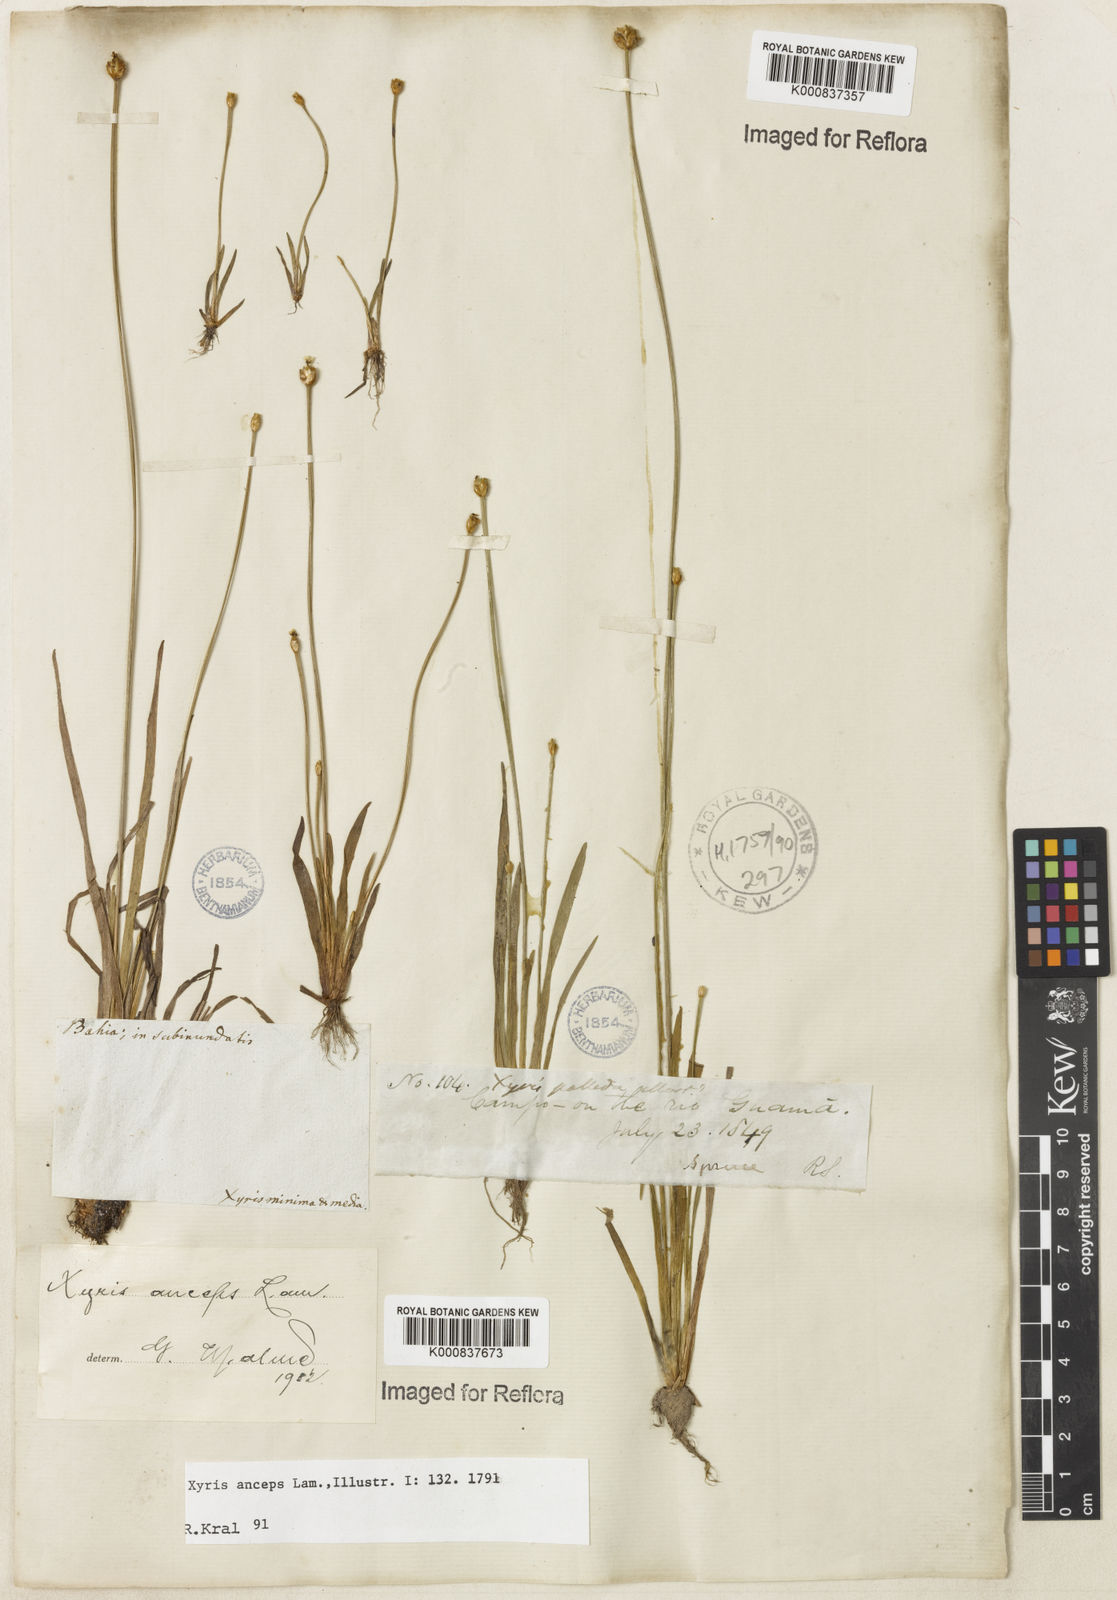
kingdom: Plantae
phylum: Tracheophyta
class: Liliopsida
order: Poales
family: Xyridaceae
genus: Xyris
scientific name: Xyris
